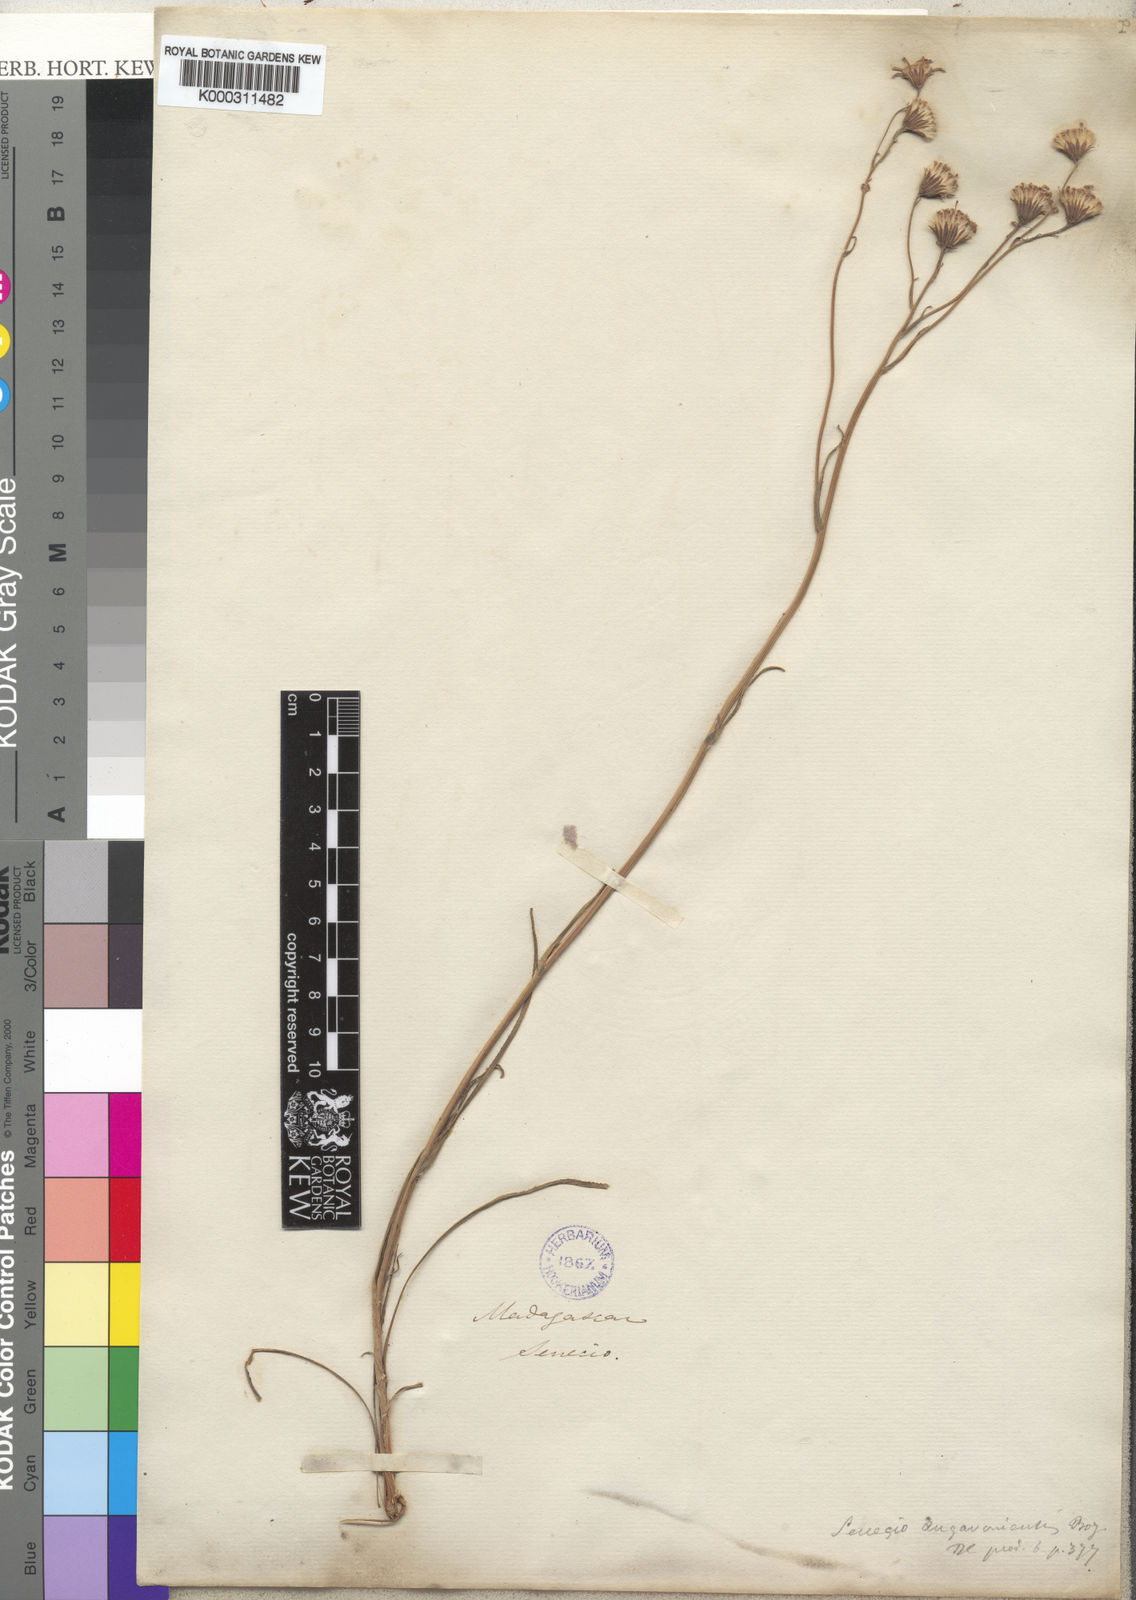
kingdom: Plantae
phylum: Tracheophyta
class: Magnoliopsida
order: Asterales
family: Asteraceae
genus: Senecio
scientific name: Senecio emirnensis
